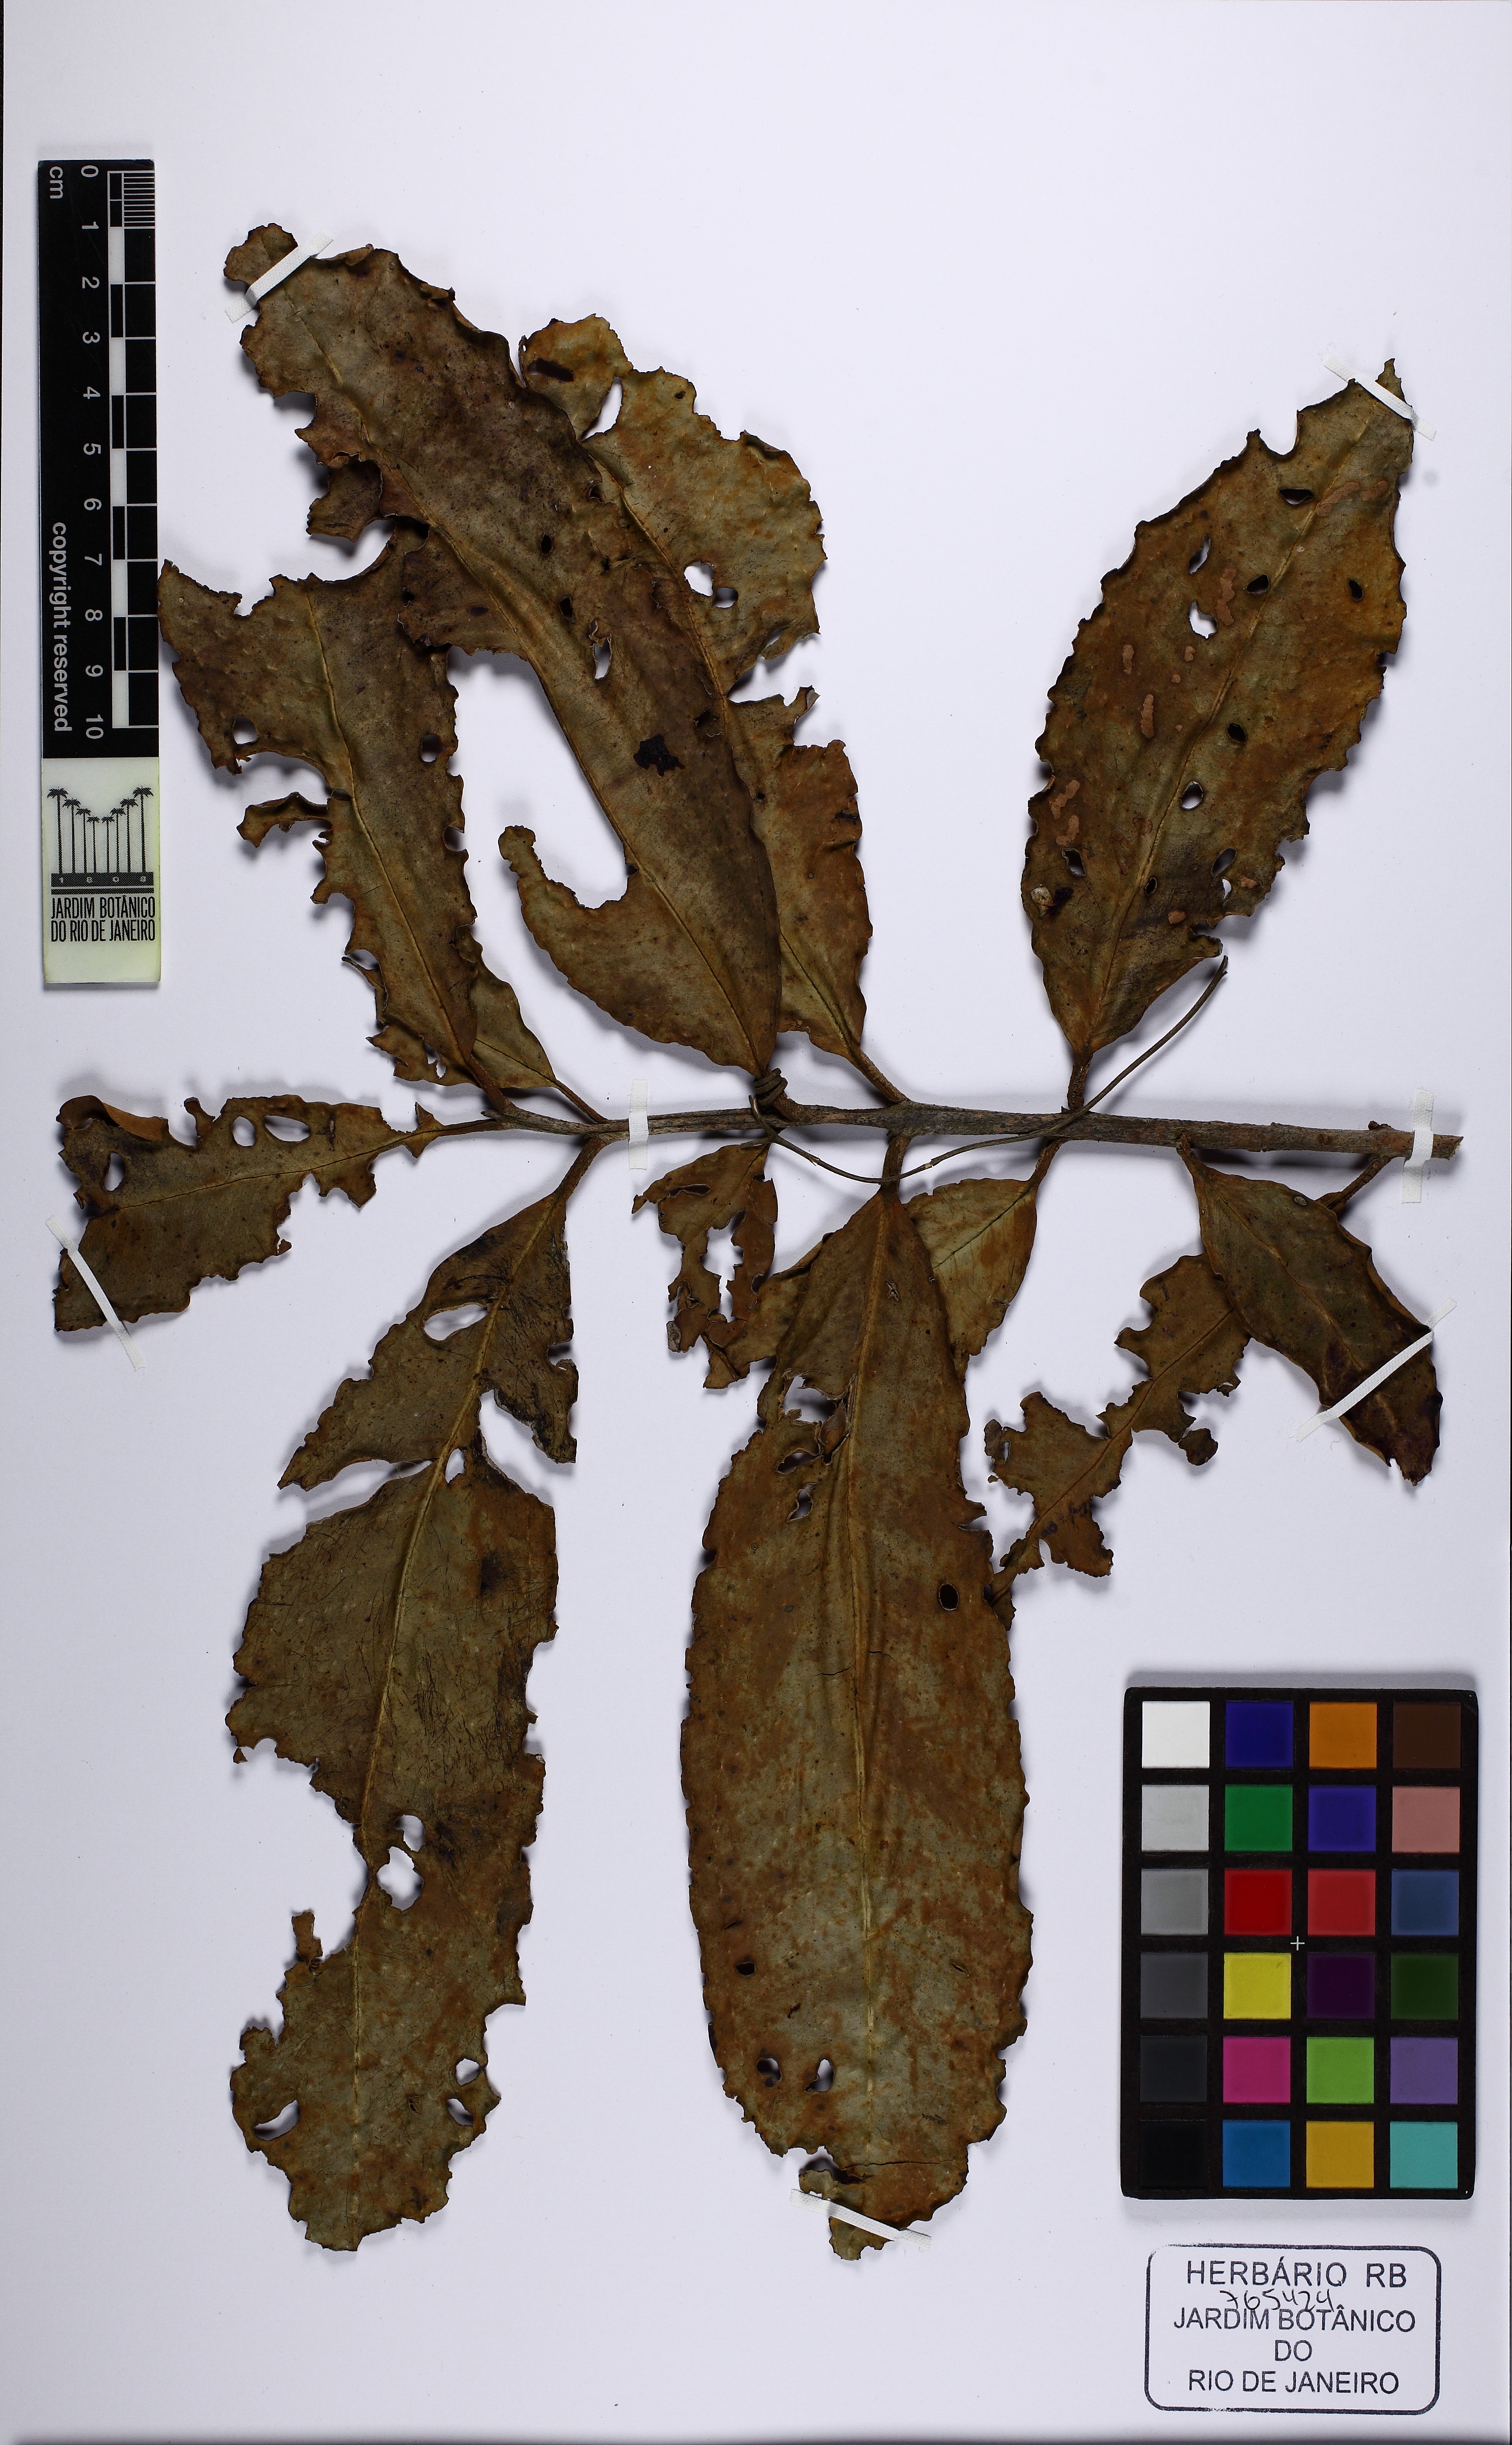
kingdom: Plantae
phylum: Tracheophyta
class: Magnoliopsida
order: Myrtales
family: Myrtaceae
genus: Eugenia
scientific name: Eugenia oblongata
